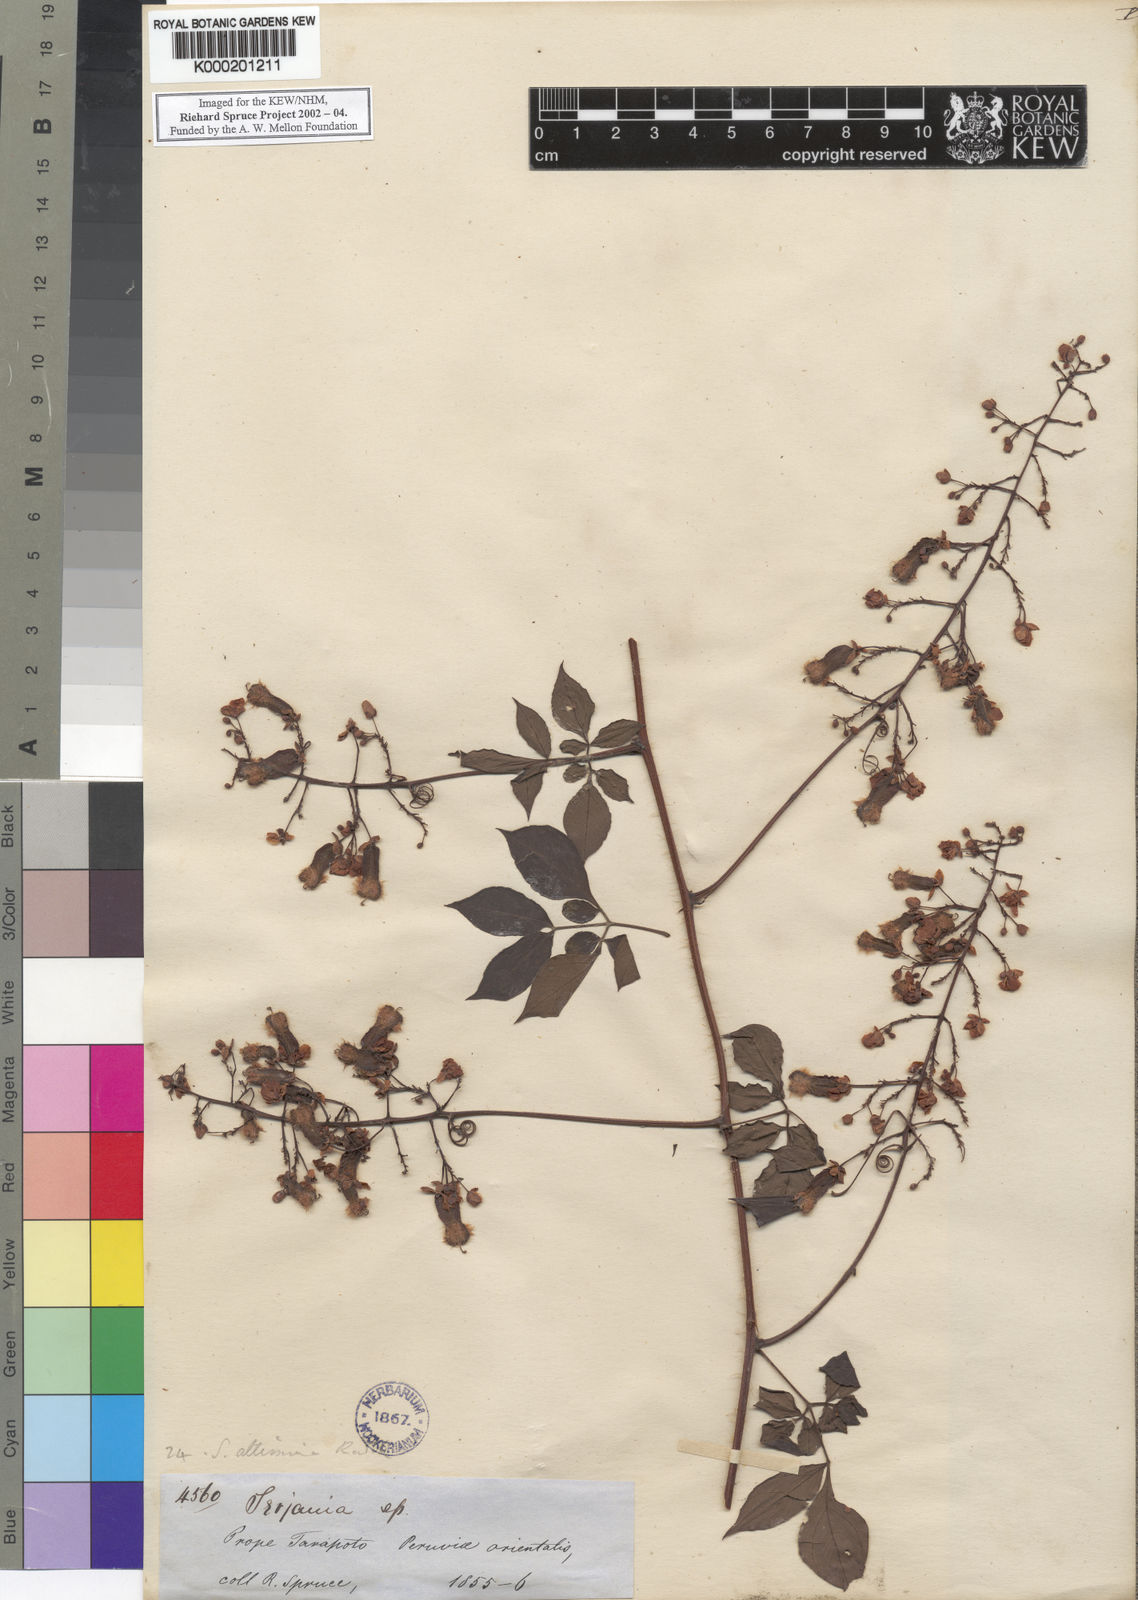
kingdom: Plantae
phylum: Tracheophyta
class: Magnoliopsida
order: Sapindales
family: Sapindaceae
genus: Serjania
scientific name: Serjania altissima
